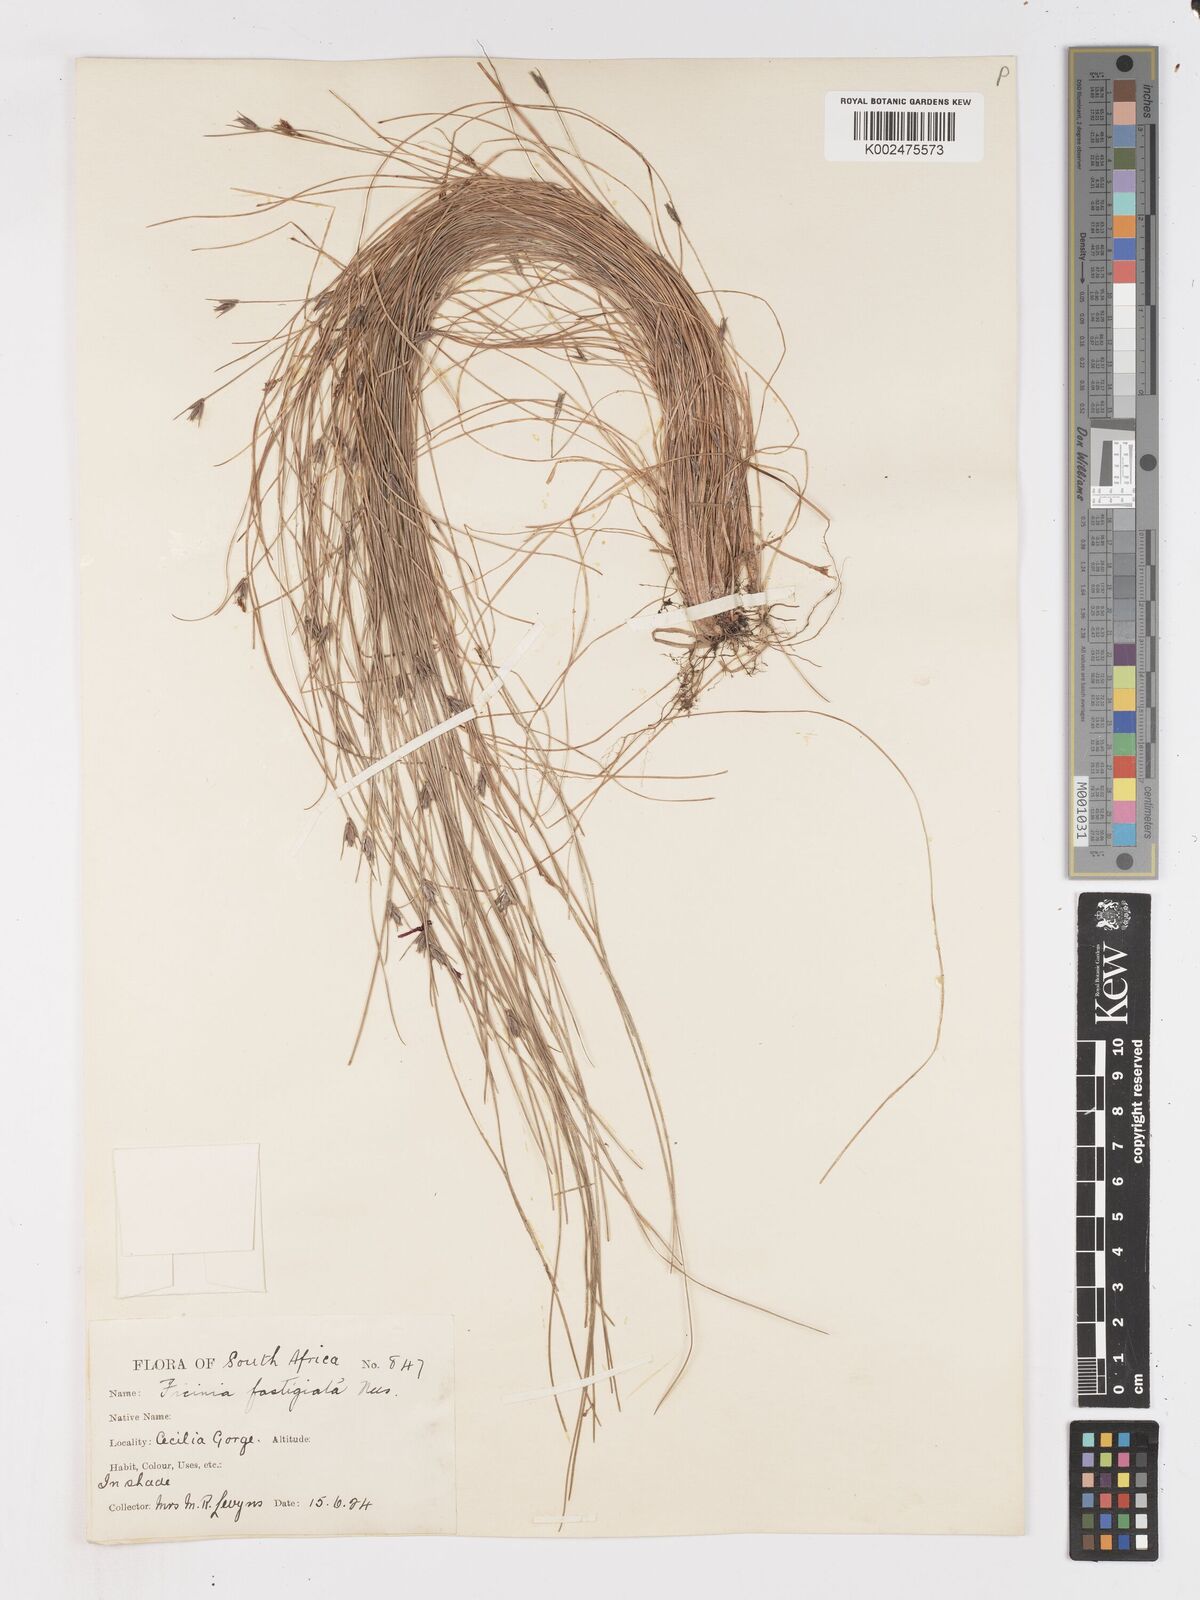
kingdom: Plantae
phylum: Tracheophyta
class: Liliopsida
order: Poales
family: Cyperaceae
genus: Ficinia
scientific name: Ficinia fastigiata
